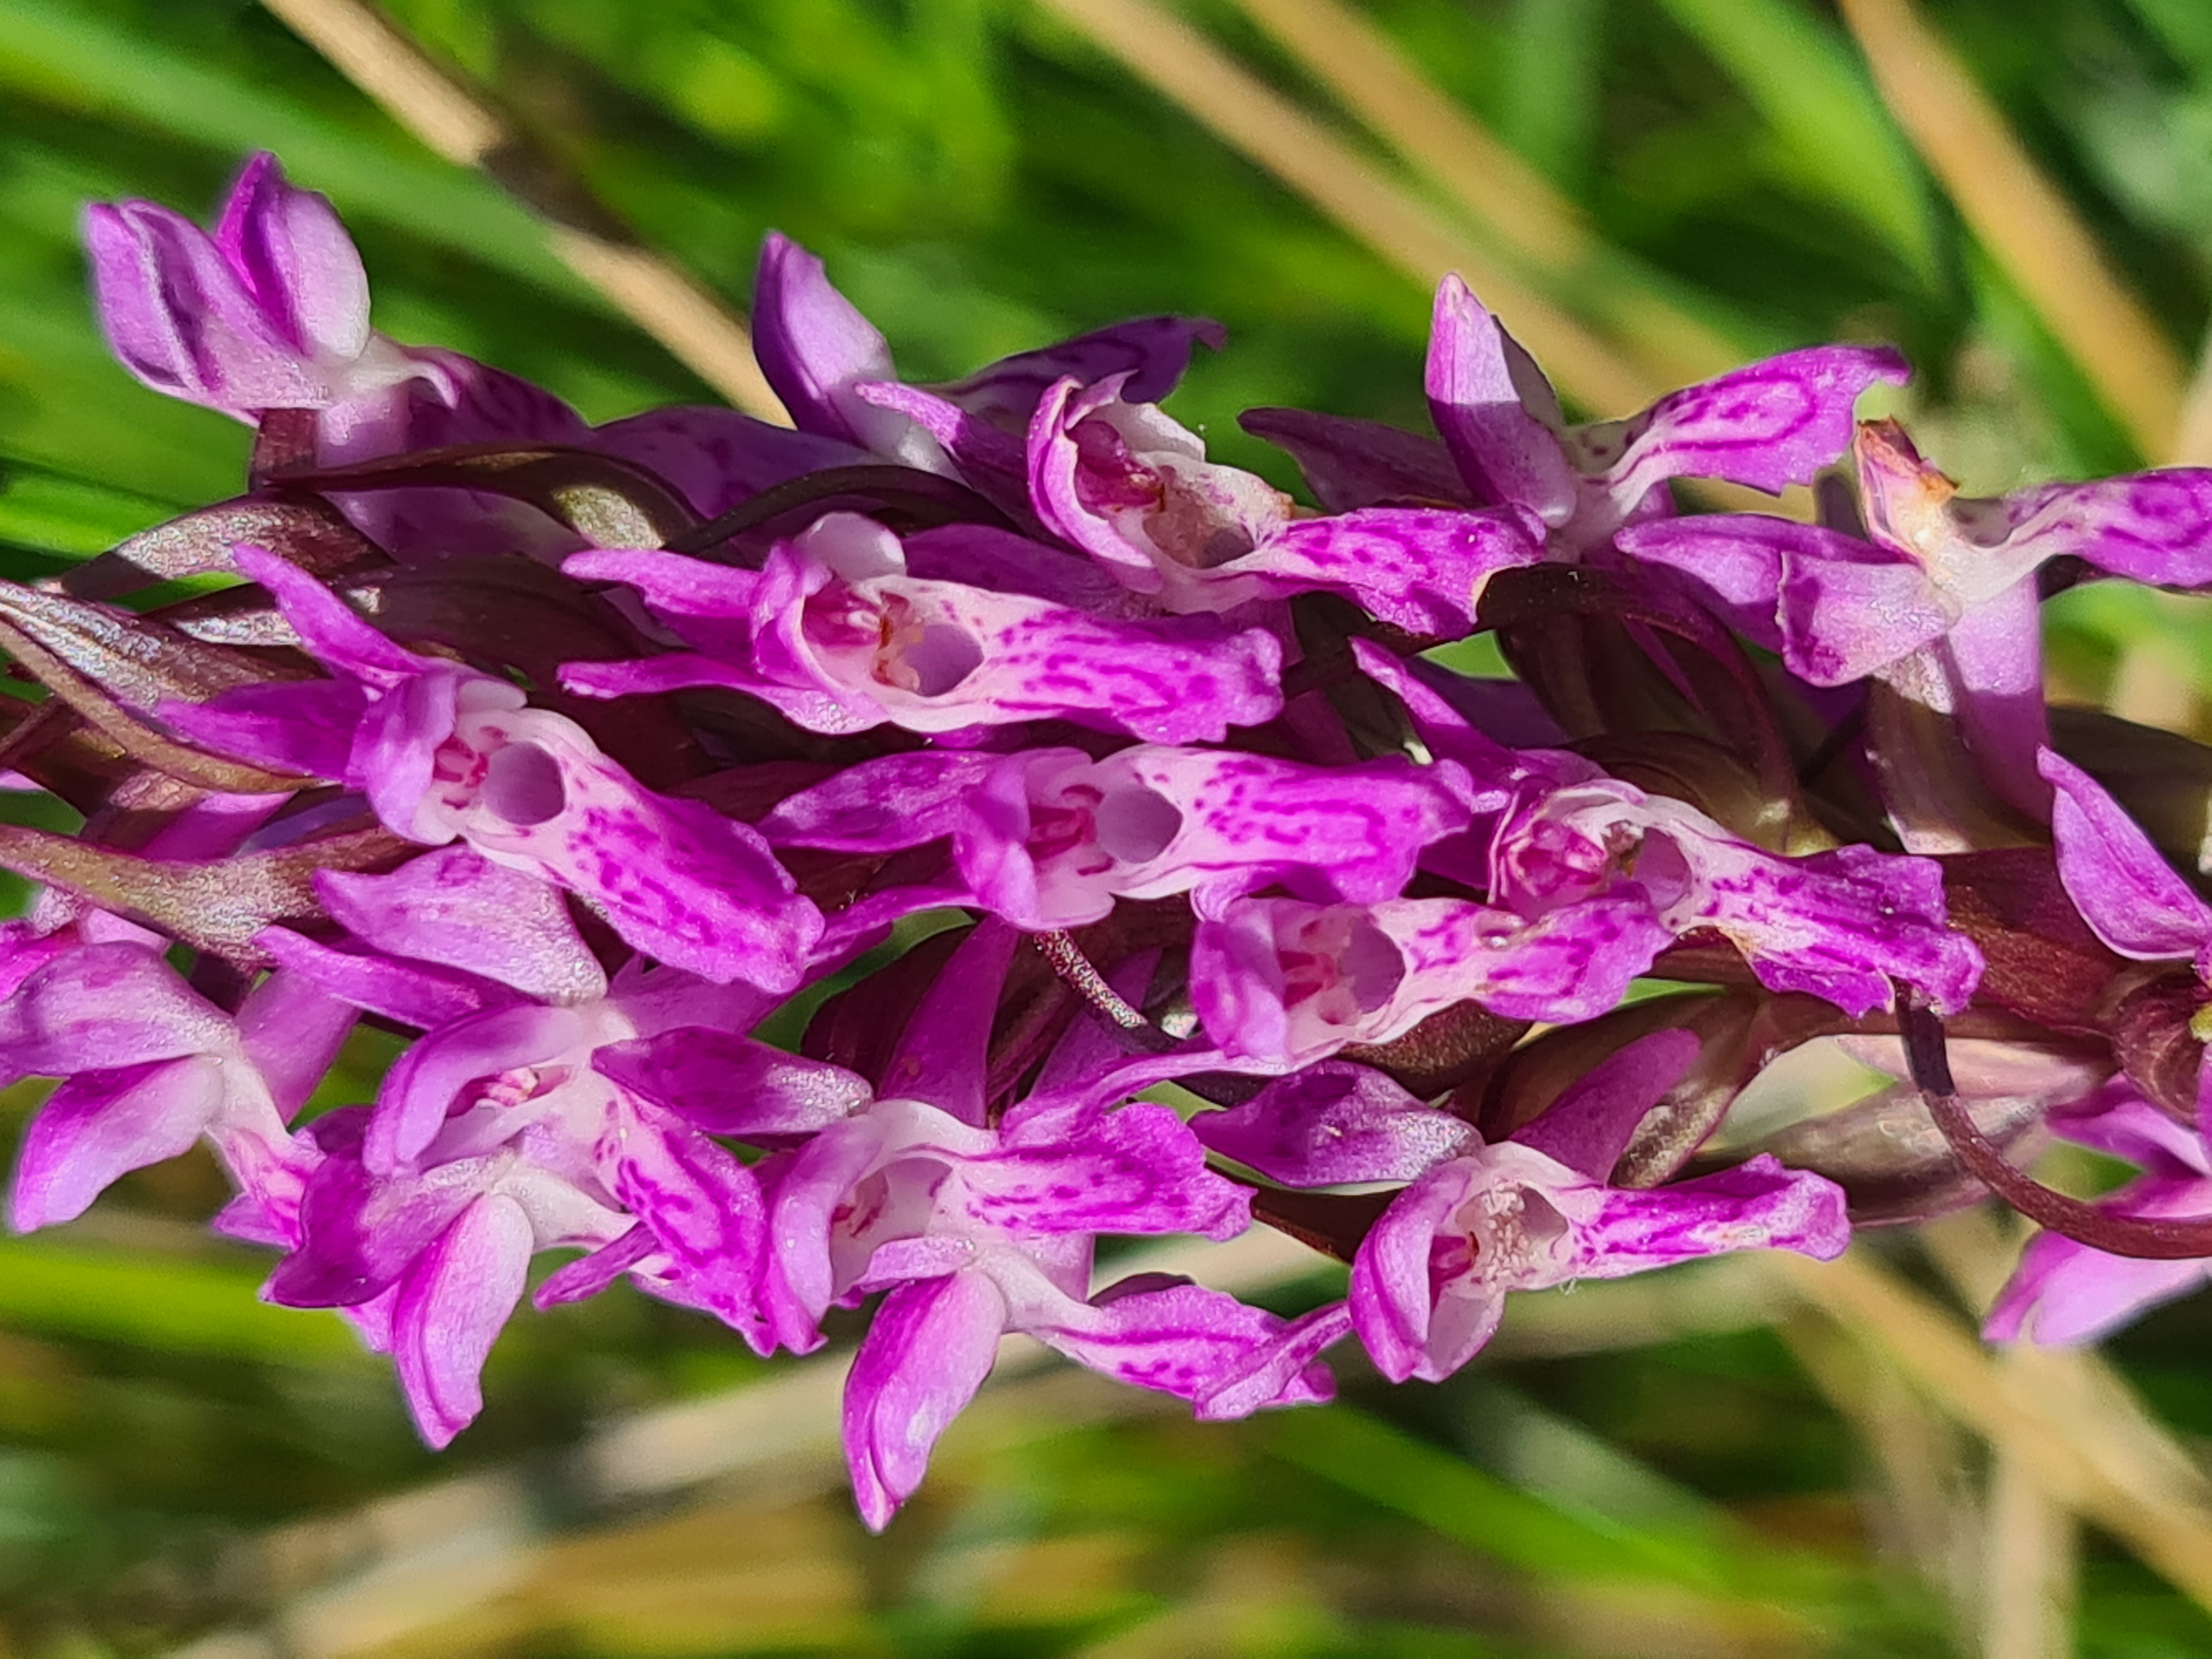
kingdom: Plantae
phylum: Tracheophyta
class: Liliopsida
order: Asparagales
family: Orchidaceae
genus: Dactylorhiza
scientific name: Dactylorhiza incarnata
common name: Kødfarvet gøgeurt
